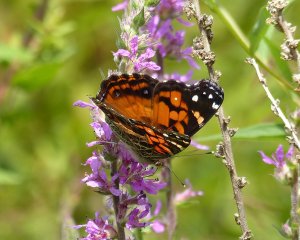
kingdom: Animalia
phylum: Arthropoda
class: Insecta
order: Lepidoptera
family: Nymphalidae
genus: Vanessa
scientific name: Vanessa virginiensis
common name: American Lady
